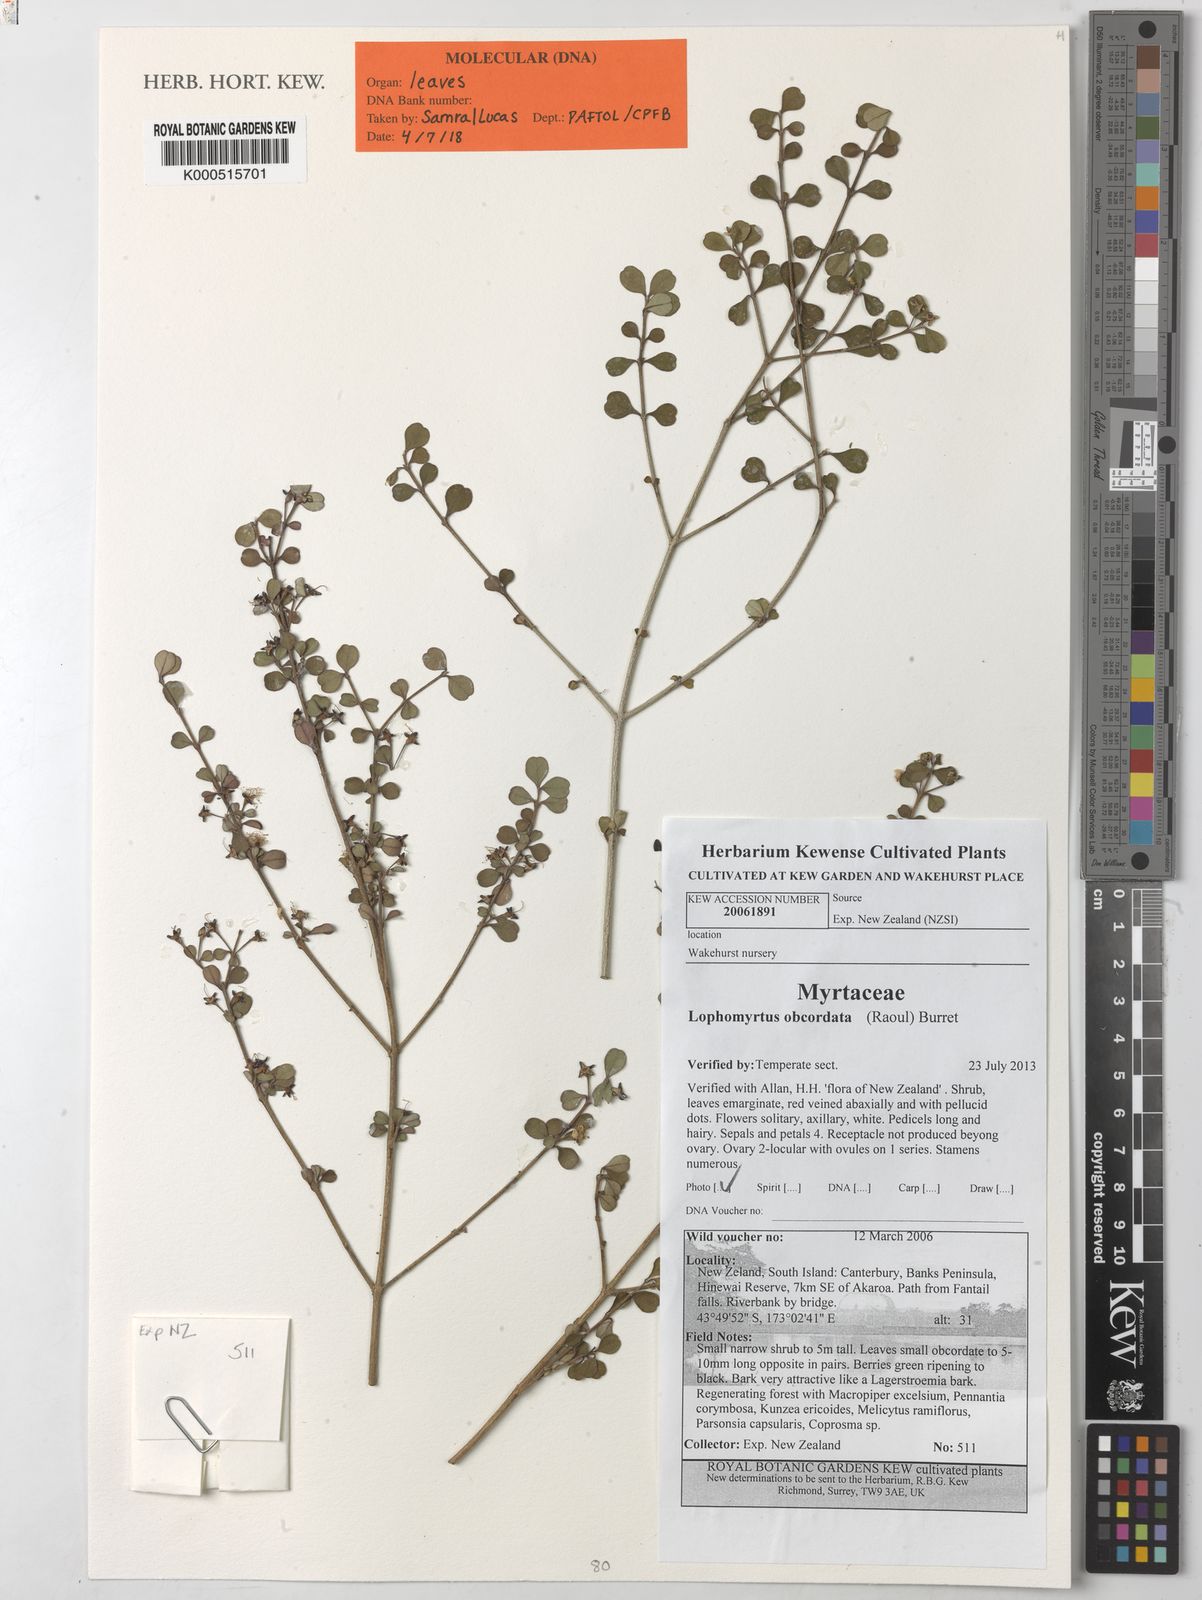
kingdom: Plantae
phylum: Tracheophyta
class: Magnoliopsida
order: Myrtales
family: Myrtaceae
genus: Lophomyrtus
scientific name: Lophomyrtus obcordata
